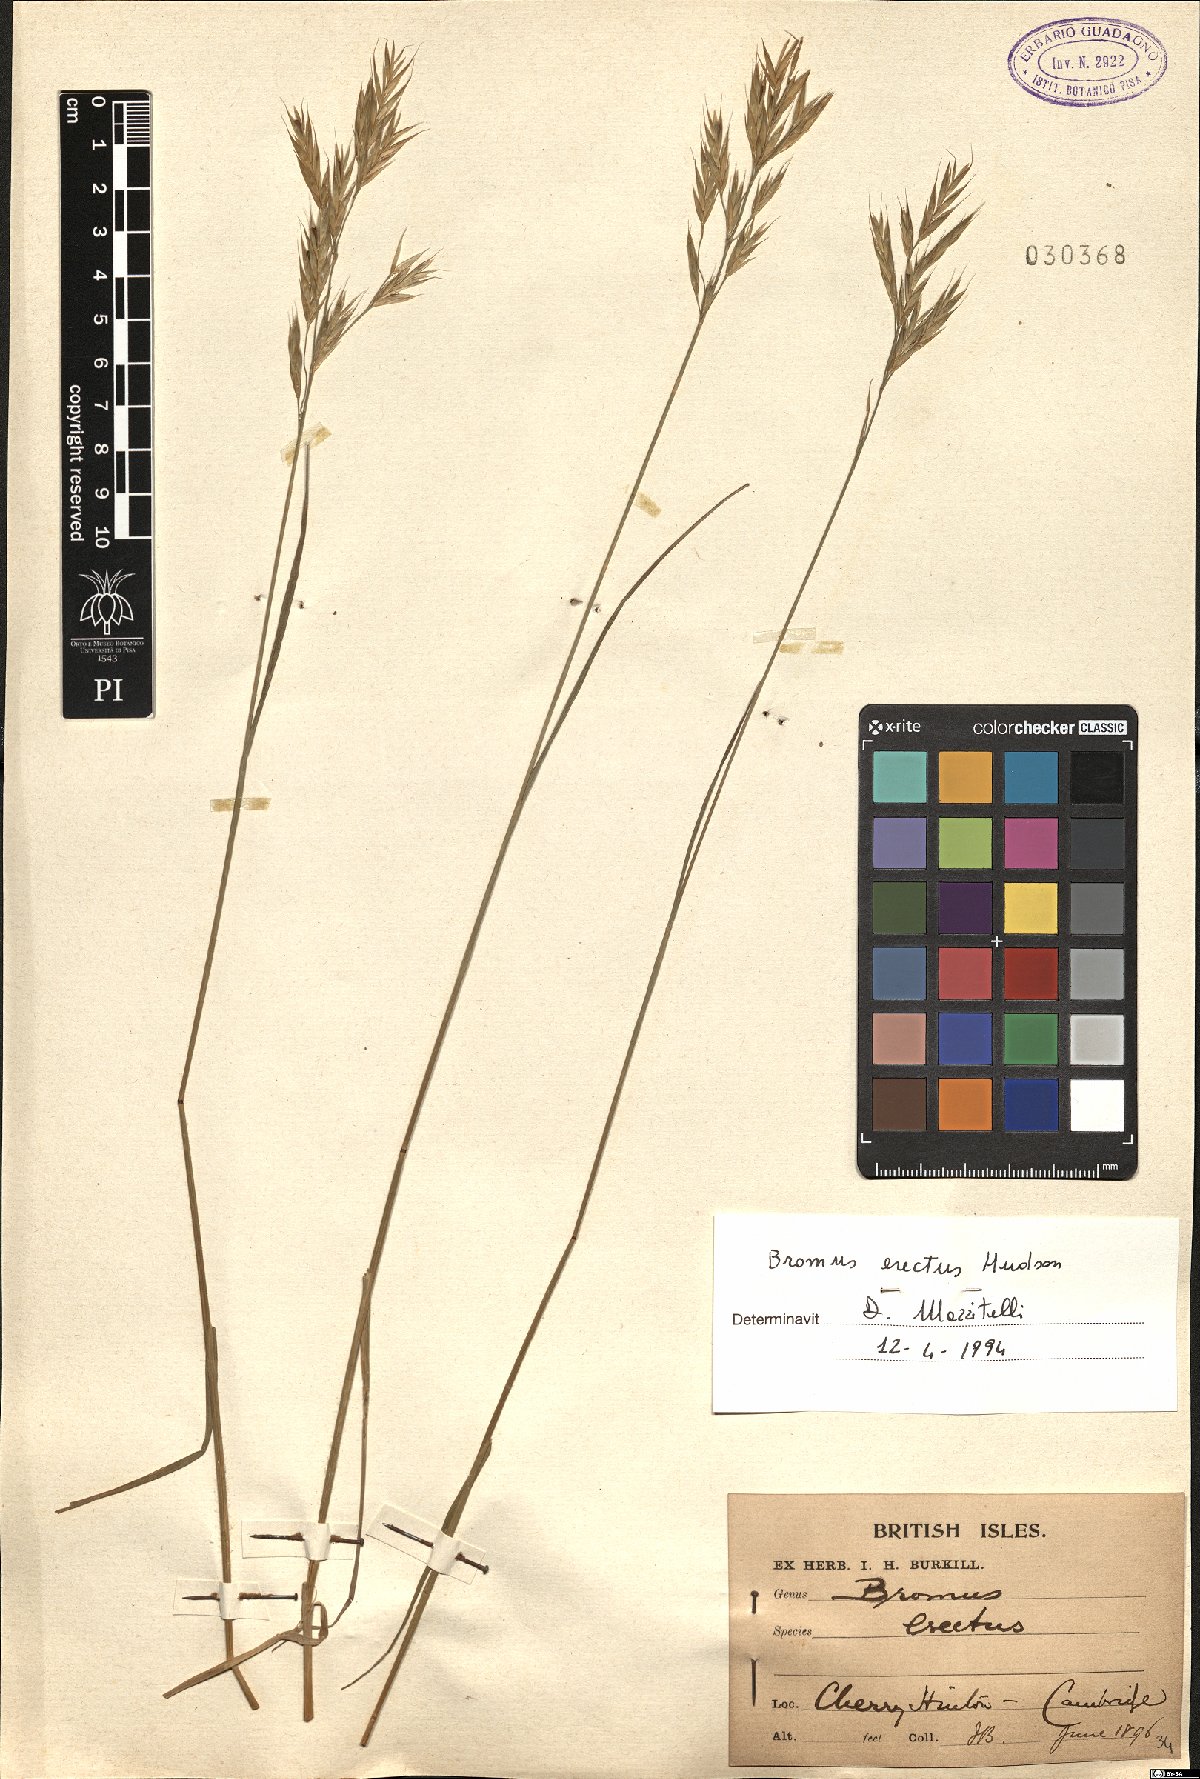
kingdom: Plantae
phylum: Tracheophyta
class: Liliopsida
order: Poales
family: Poaceae
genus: Bromus
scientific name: Bromus erectus
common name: Erect brome
